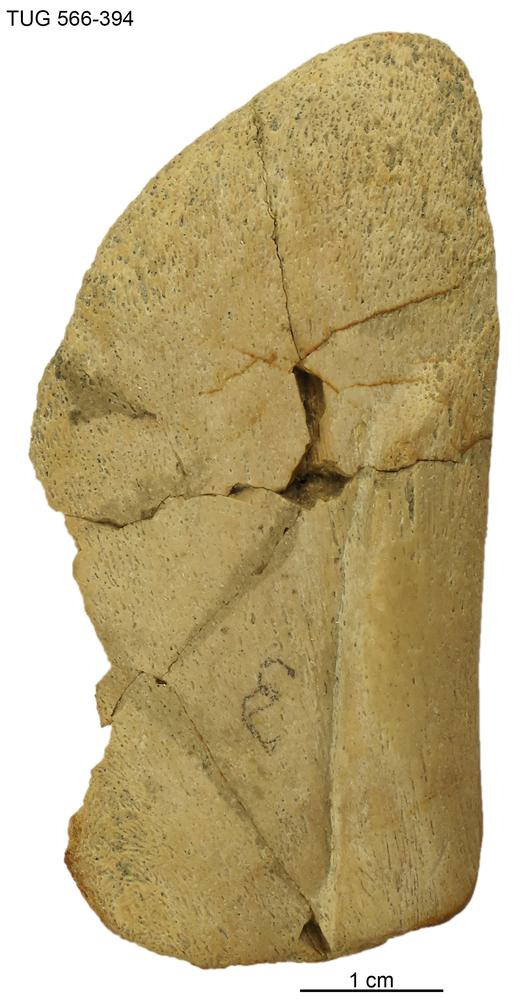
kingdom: Animalia
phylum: Chordata
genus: Homosteus
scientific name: Homosteus sulcatus
